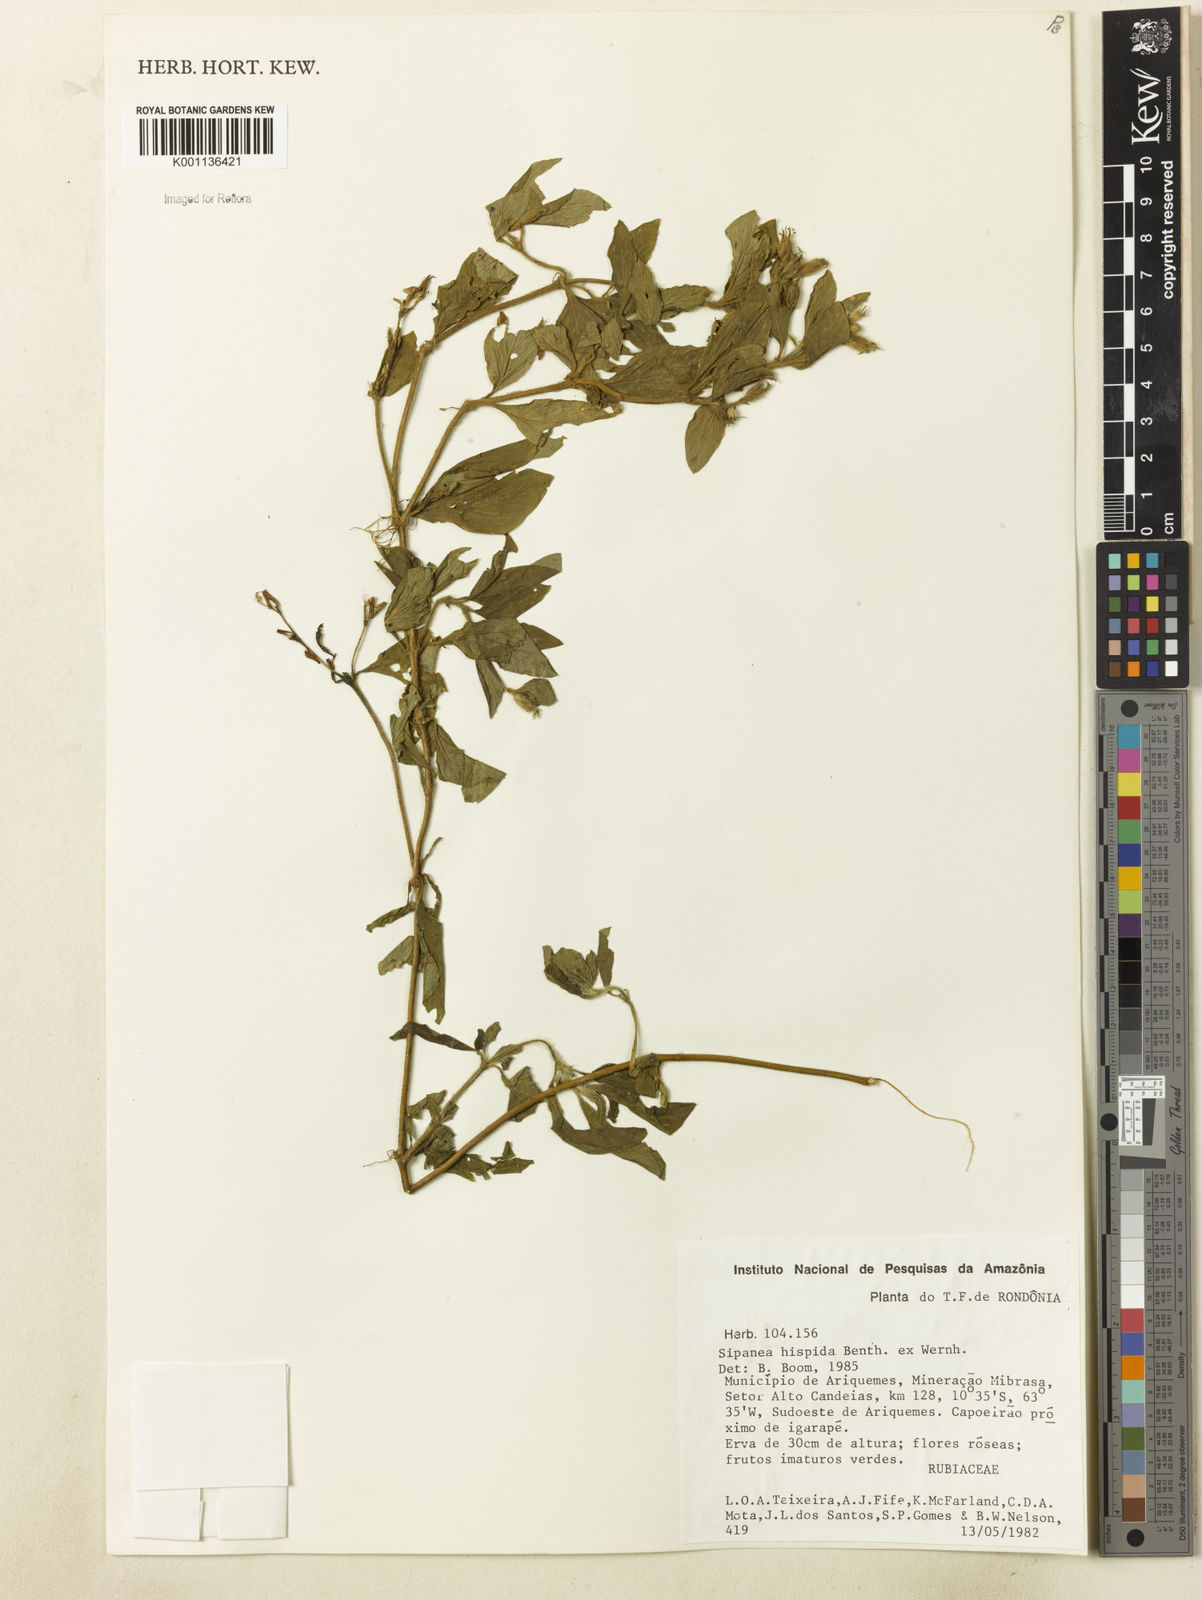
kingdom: Plantae
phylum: Tracheophyta
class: Magnoliopsida
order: Gentianales
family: Rubiaceae
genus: Sipanea
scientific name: Sipanea hispida
